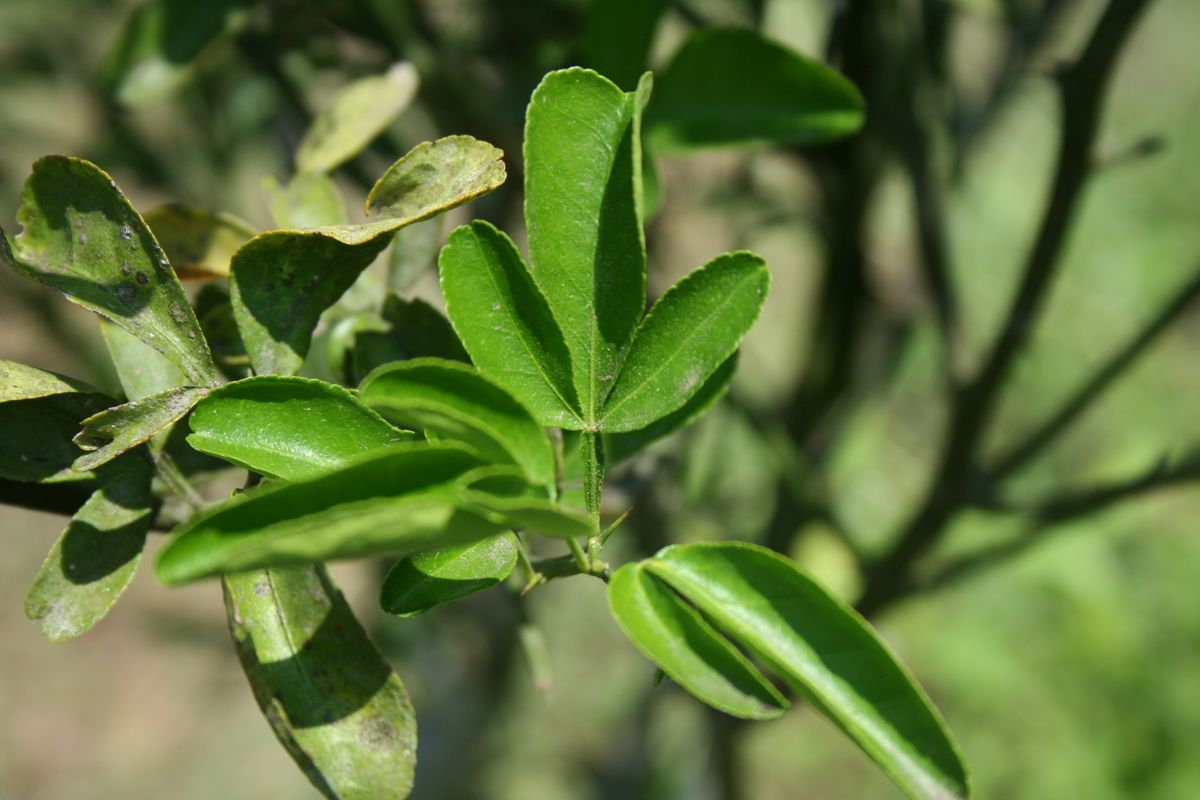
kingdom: Plantae
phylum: Tracheophyta
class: Magnoliopsida
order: Sapindales
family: Rutaceae
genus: Citrus
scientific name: Citrus trifoliata
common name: Japanese bitter-orange
